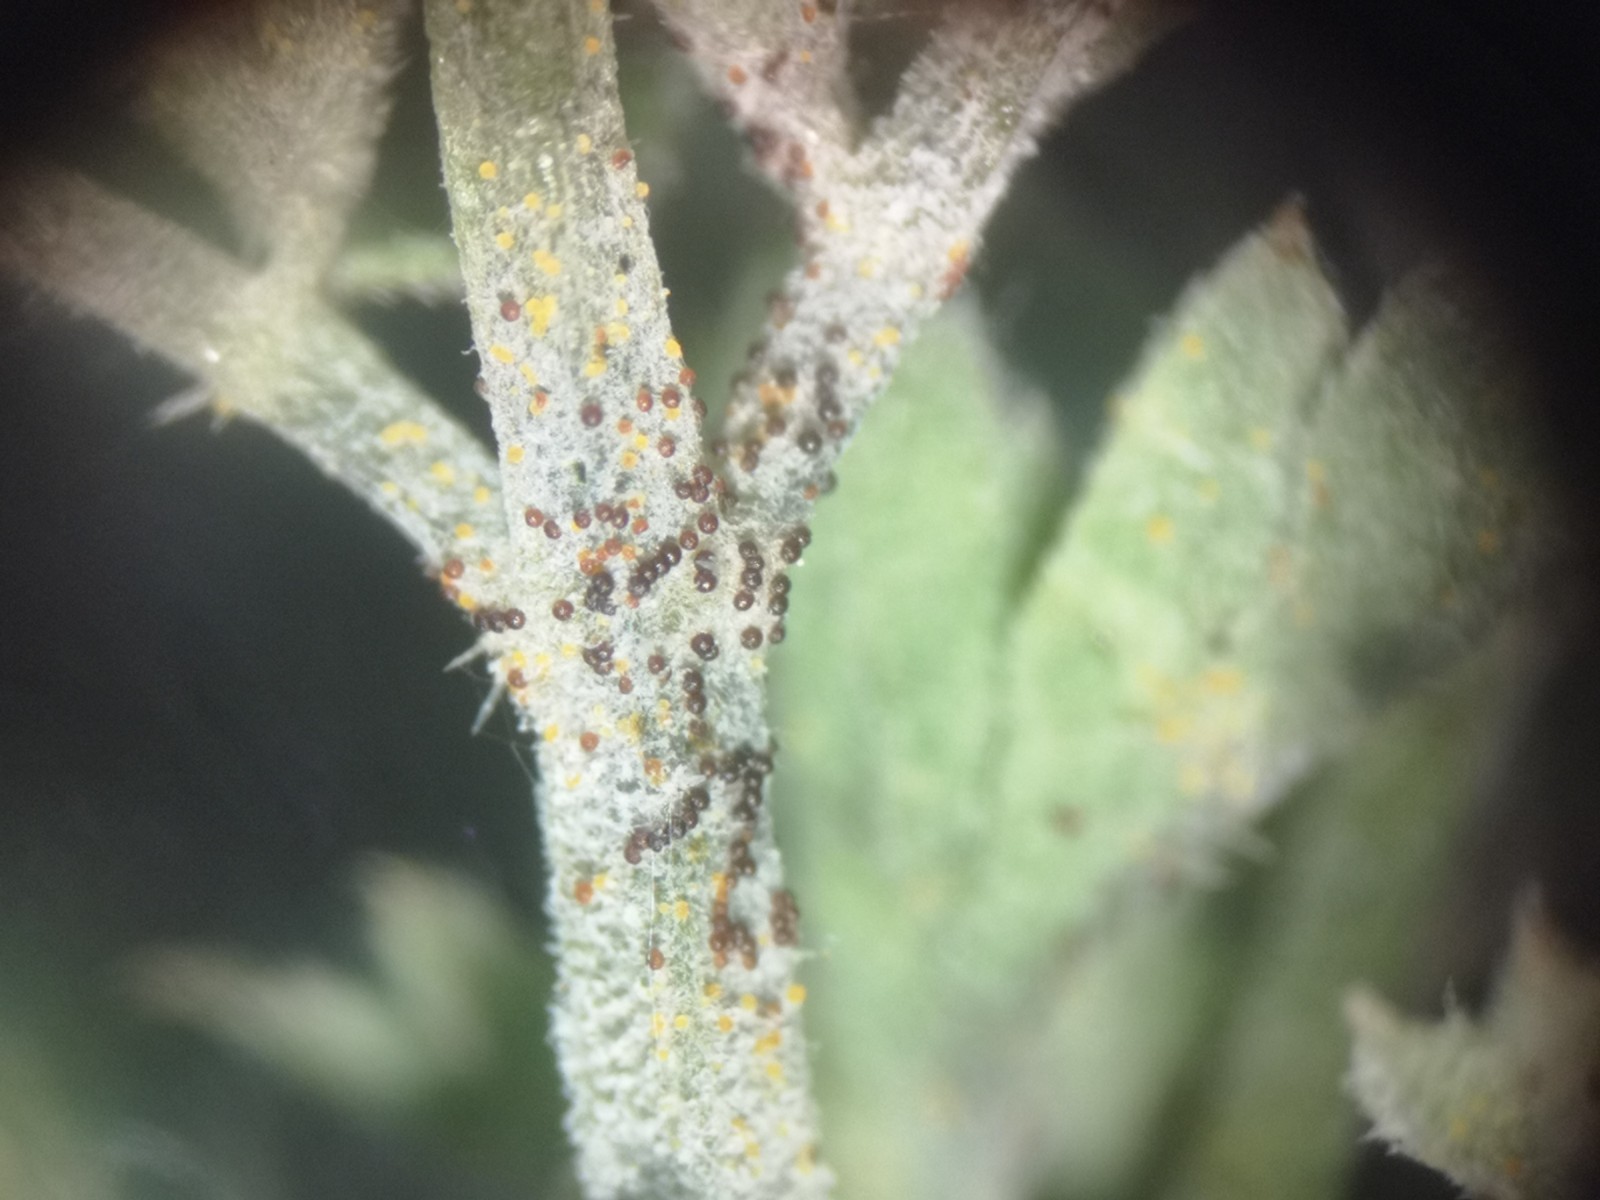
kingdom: Fungi
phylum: Ascomycota
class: Leotiomycetes
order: Helotiales
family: Erysiphaceae
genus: Erysiphe
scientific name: Erysiphe heraclei
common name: skærmplante-meldug
